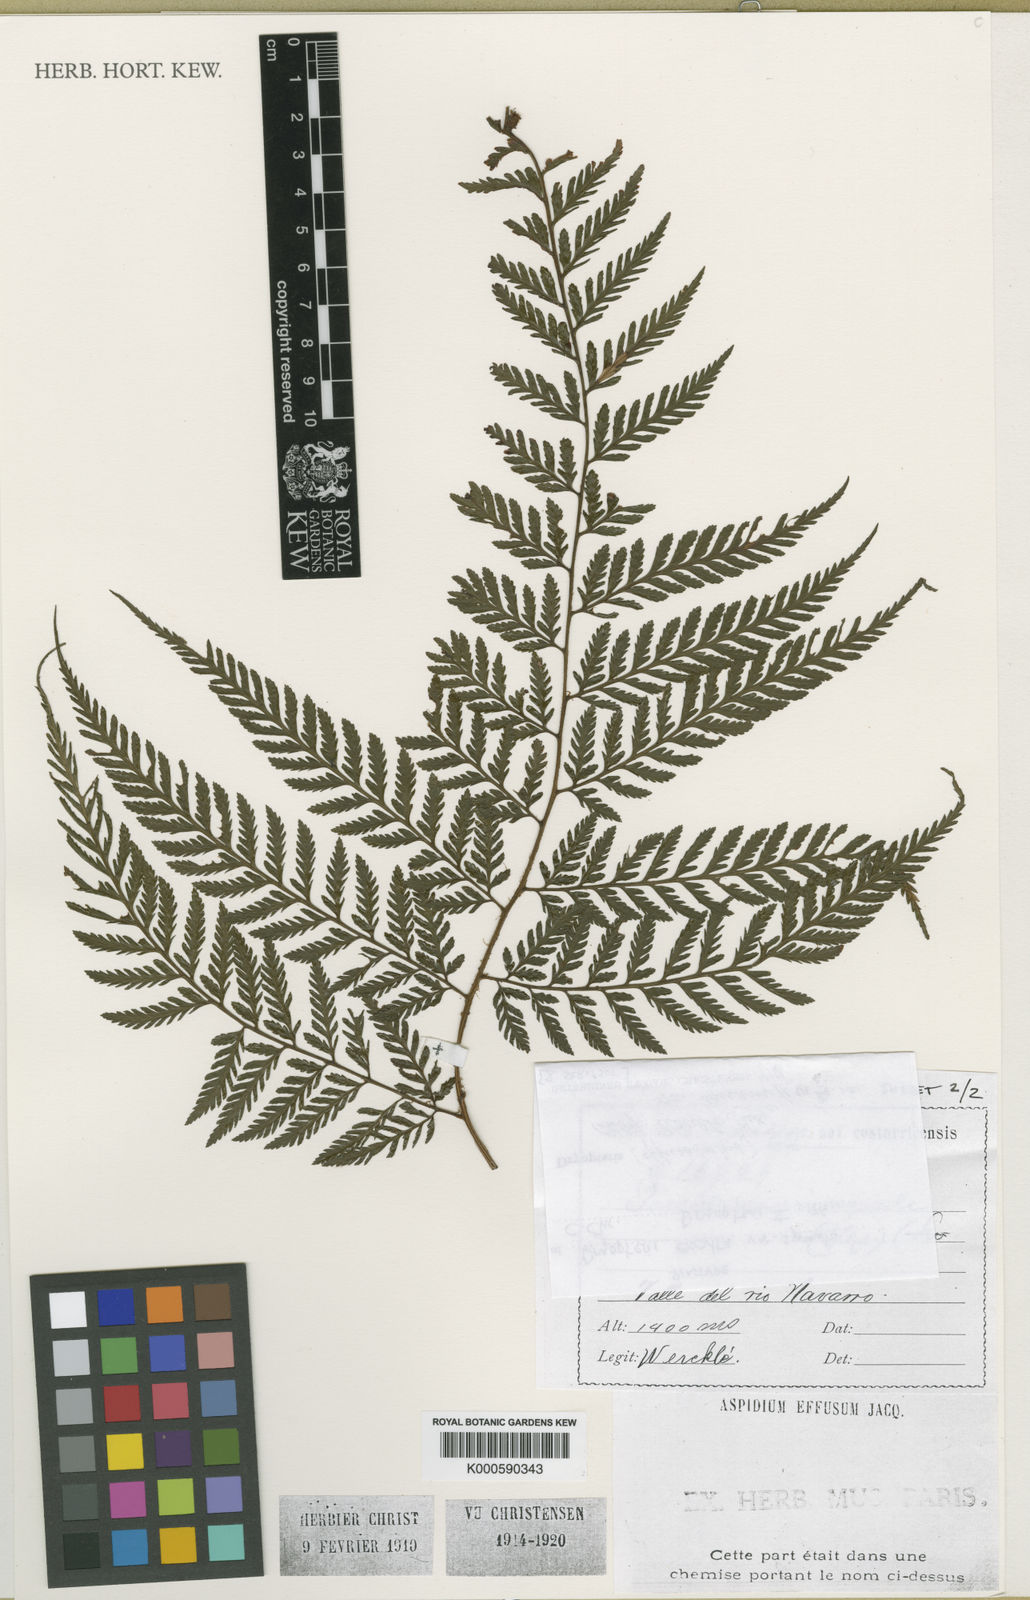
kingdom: Plantae
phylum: Tracheophyta
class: Polypodiopsida
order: Polypodiales
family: Dryopteridaceae
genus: Parapolystichum
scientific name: Parapolystichum excultum
